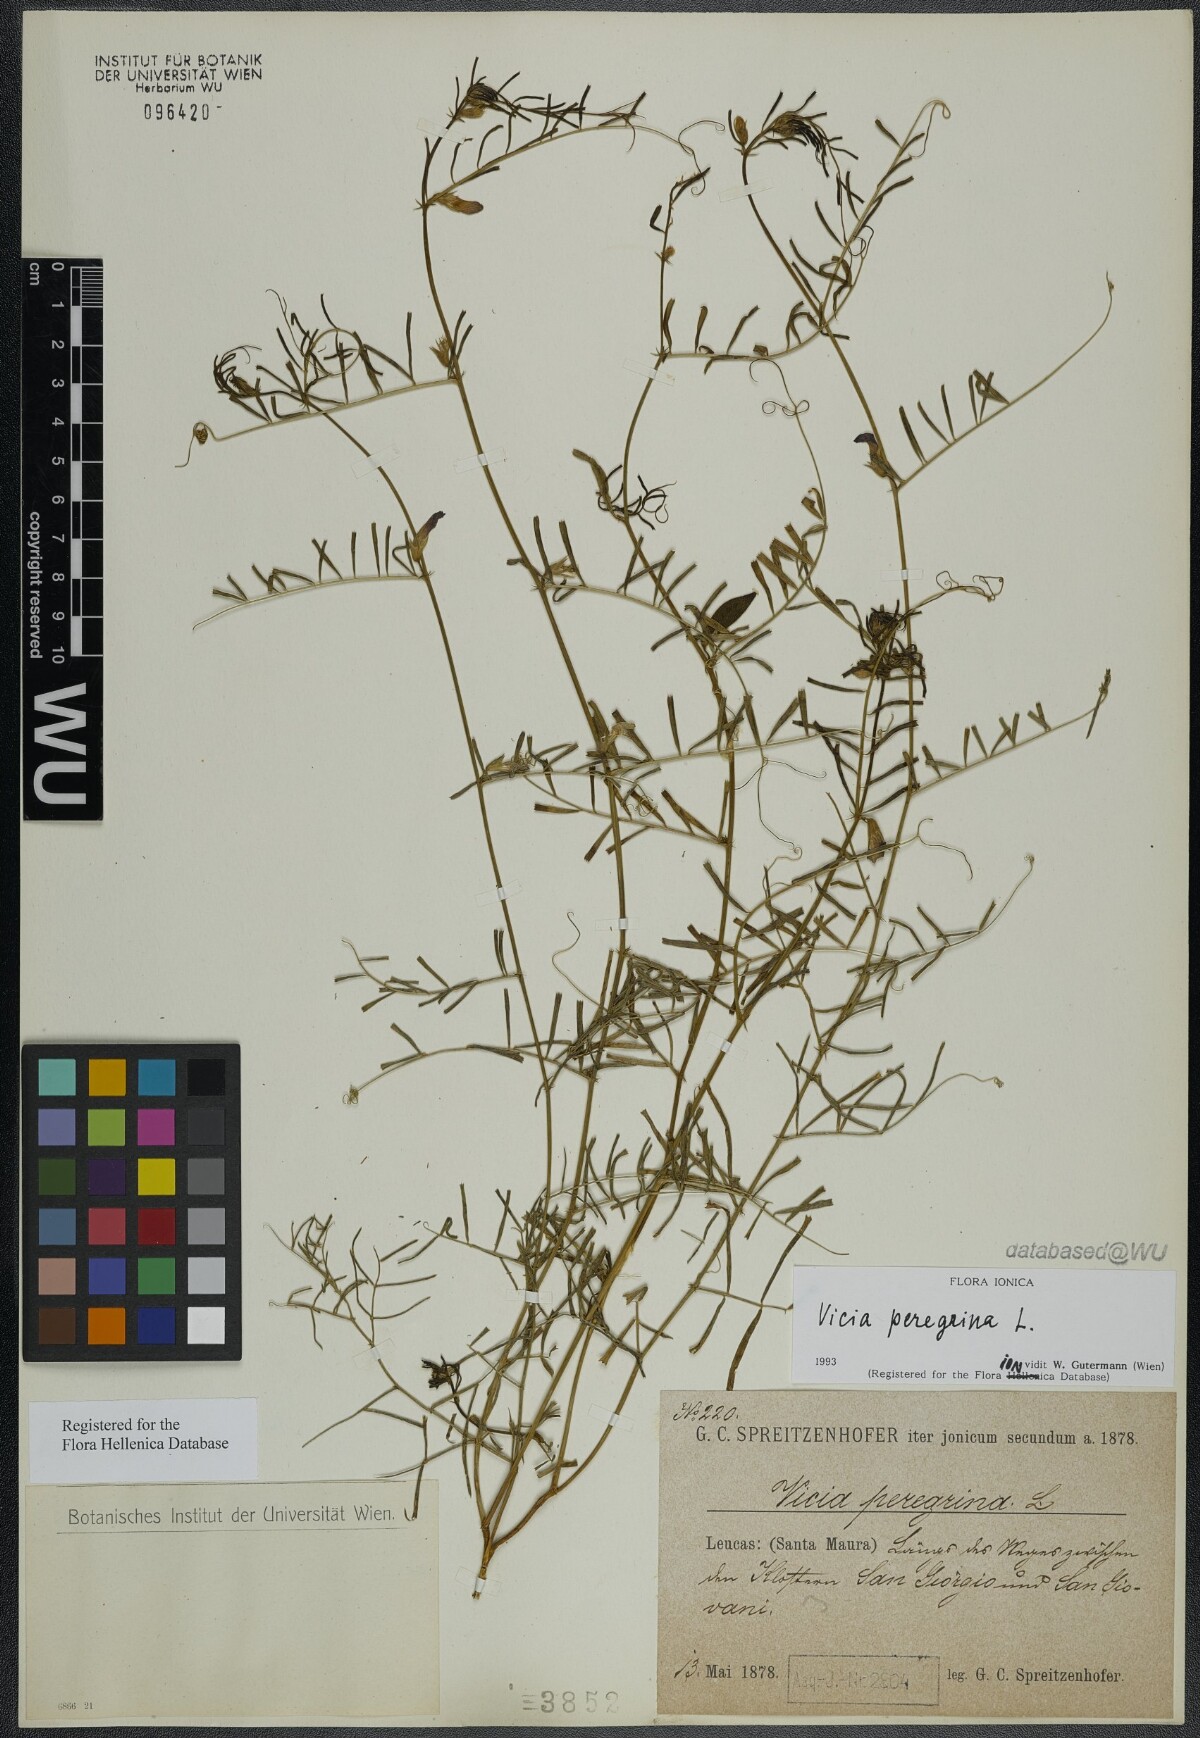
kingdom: Plantae
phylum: Tracheophyta
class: Magnoliopsida
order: Fabales
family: Fabaceae
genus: Vicia
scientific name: Vicia peregrina
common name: Broad-pod vetch
